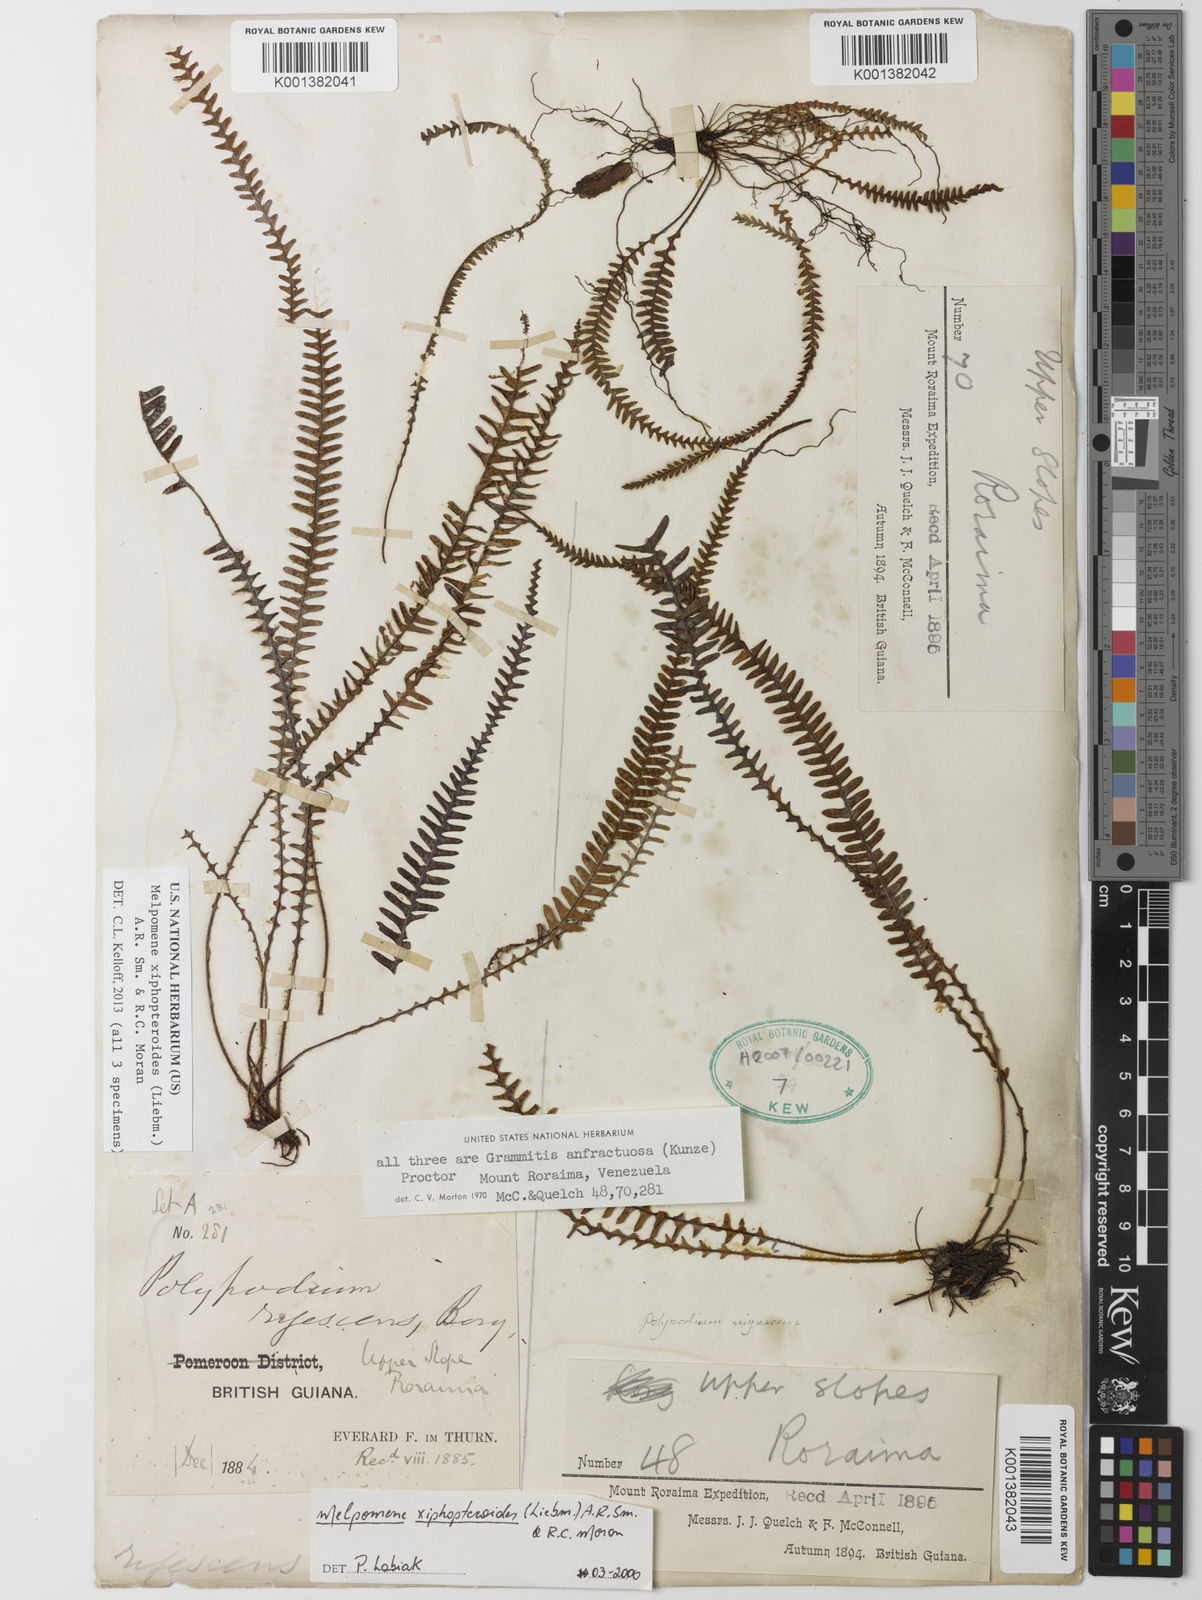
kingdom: Plantae
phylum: Tracheophyta
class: Polypodiopsida
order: Polypodiales
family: Polypodiaceae
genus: Melpomene
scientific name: Melpomene xiphopteroides
